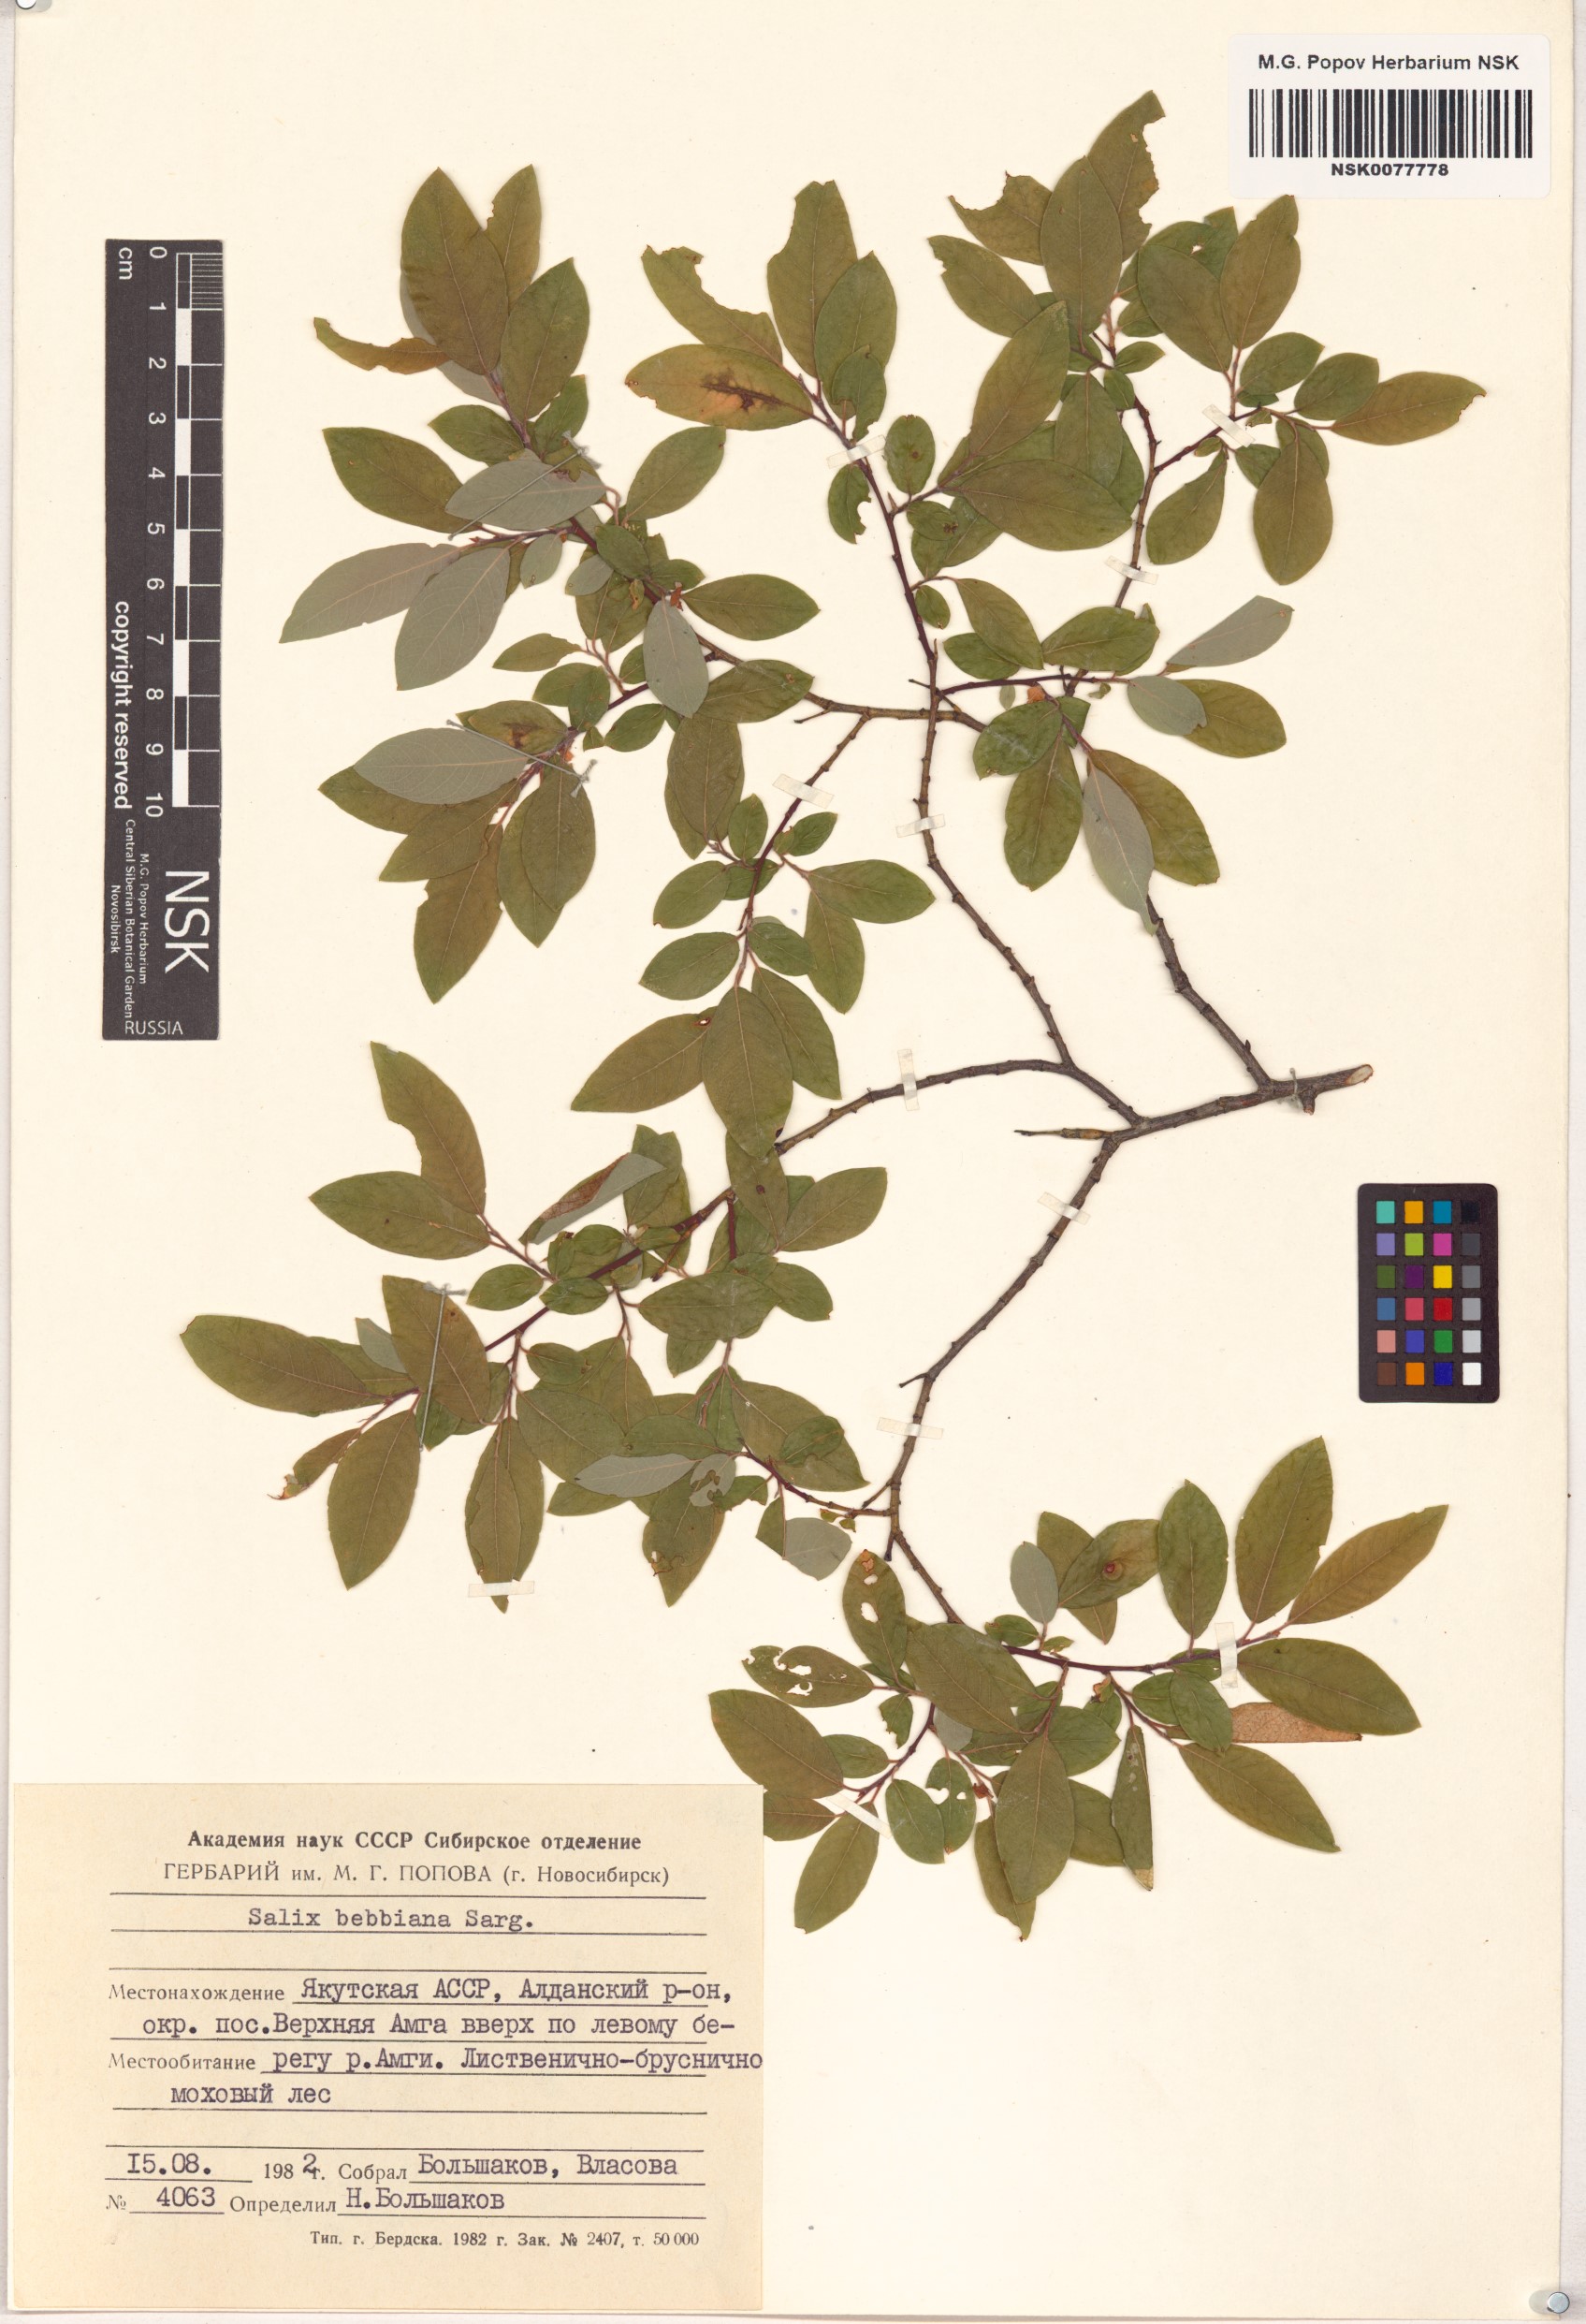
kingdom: Plantae
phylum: Tracheophyta
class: Magnoliopsida
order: Malpighiales
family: Salicaceae
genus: Salix
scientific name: Salix bebbiana
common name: Bebb's willow
